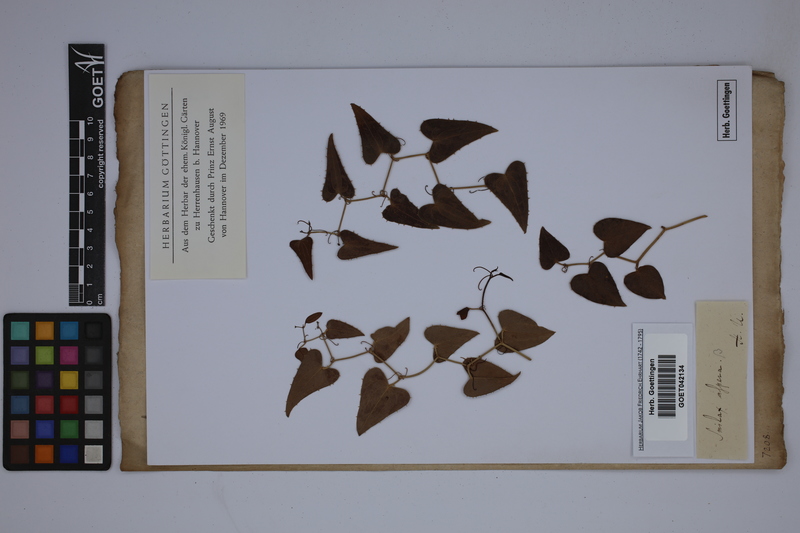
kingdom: Plantae
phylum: Tracheophyta
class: Liliopsida
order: Liliales
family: Smilacaceae
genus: Smilax
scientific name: Smilax aspera
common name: Common smilax
